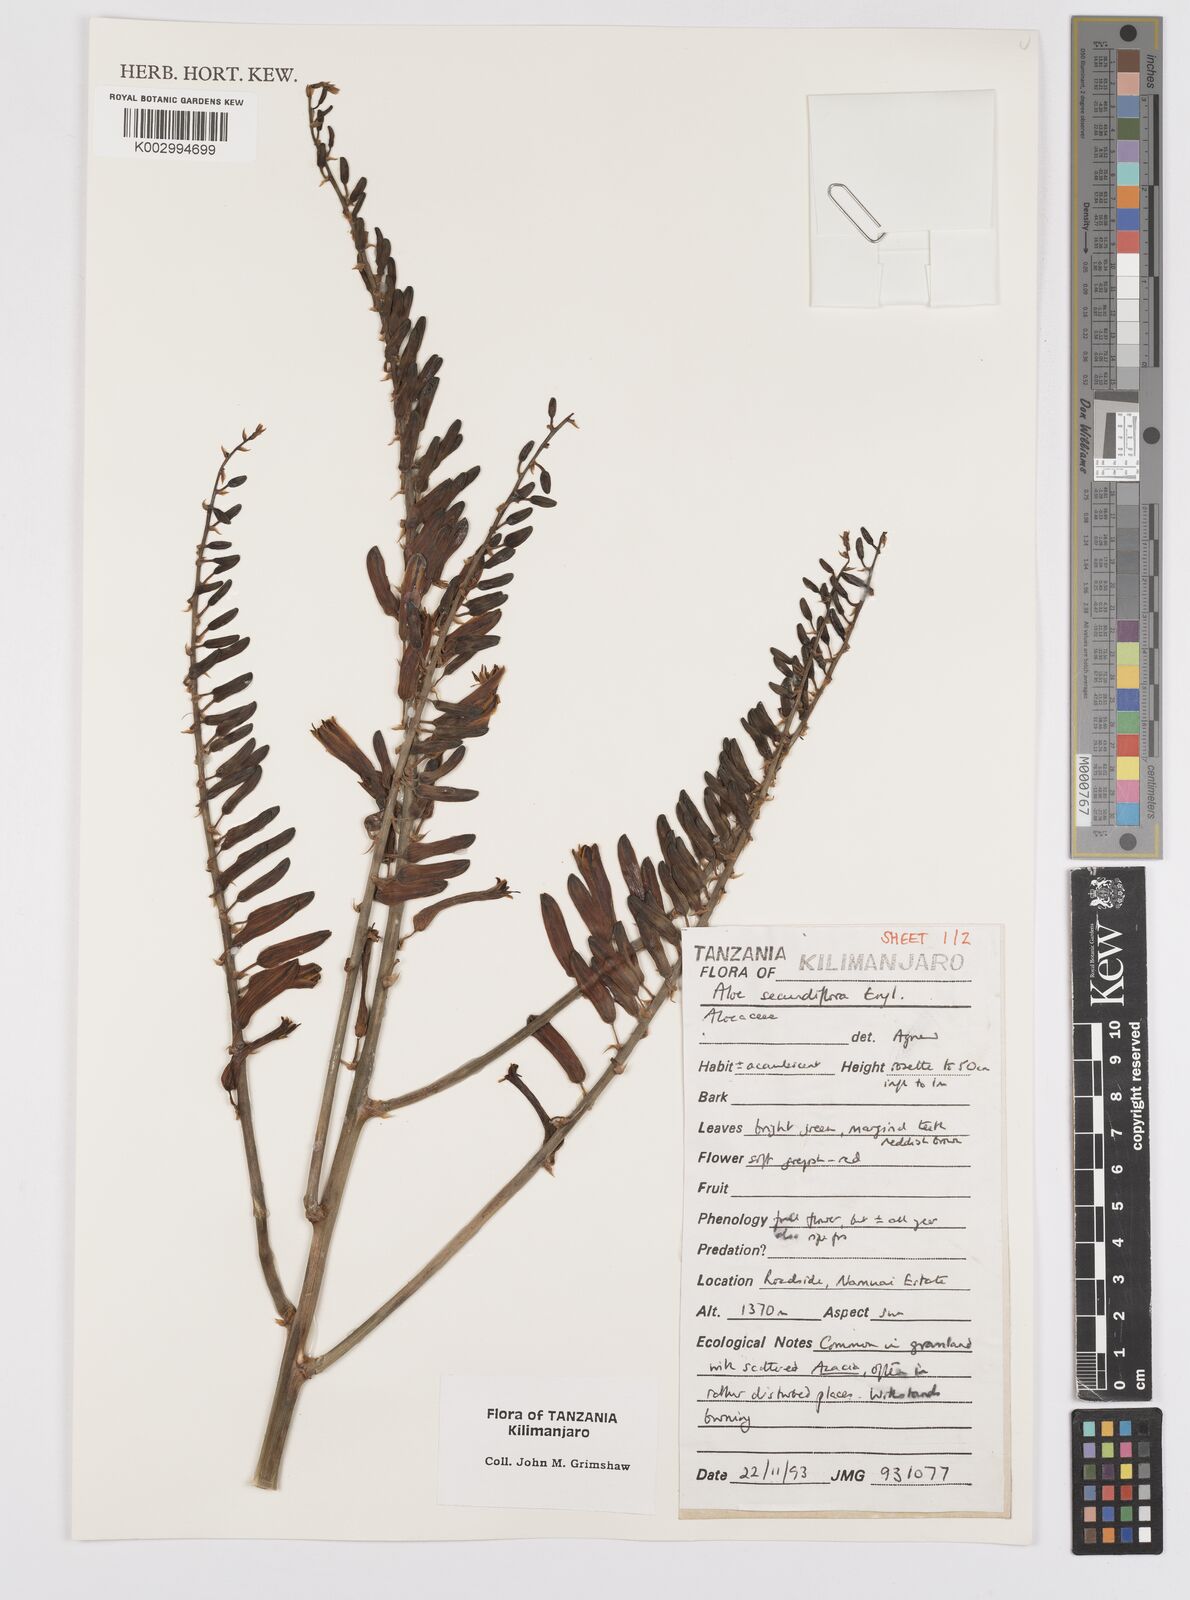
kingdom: Plantae
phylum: Tracheophyta
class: Liliopsida
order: Asparagales
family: Asphodelaceae
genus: Aloe
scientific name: Aloe secundiflora
